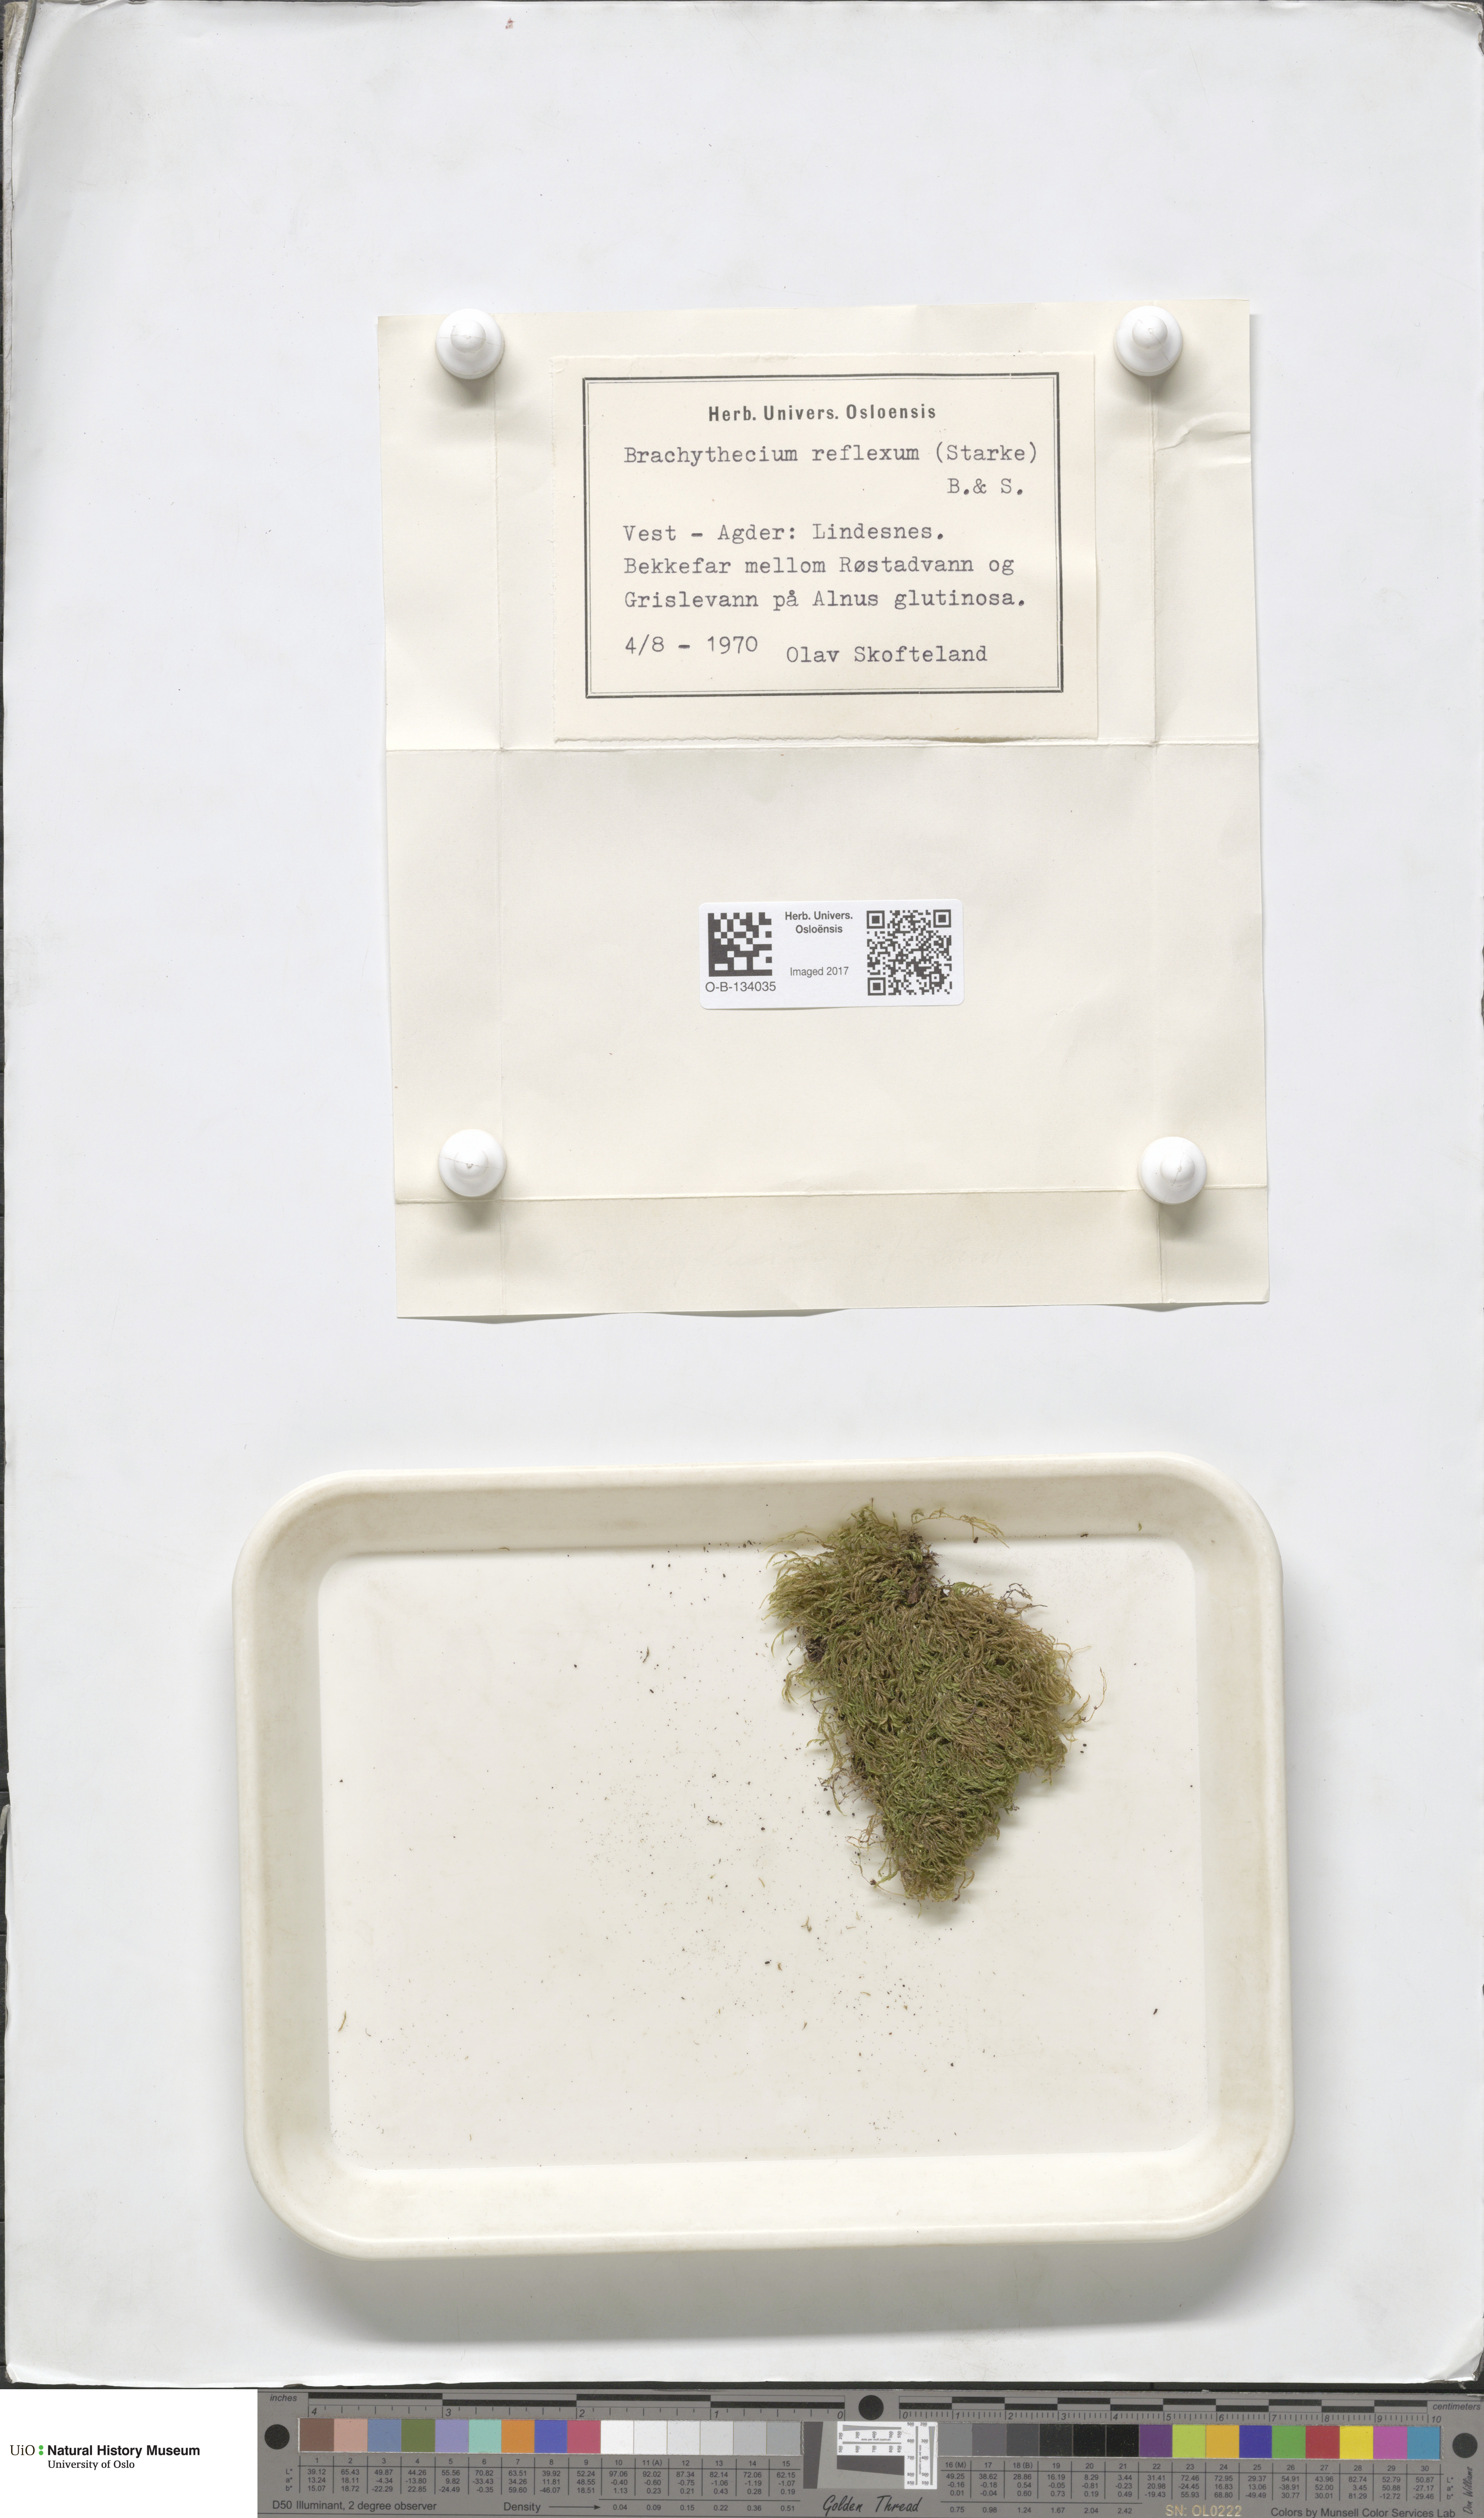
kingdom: Plantae
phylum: Bryophyta
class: Bryopsida
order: Hypnales
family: Brachytheciaceae
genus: Sciuro-hypnum
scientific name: Sciuro-hypnum reflexum
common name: Reflexed feather-moss
